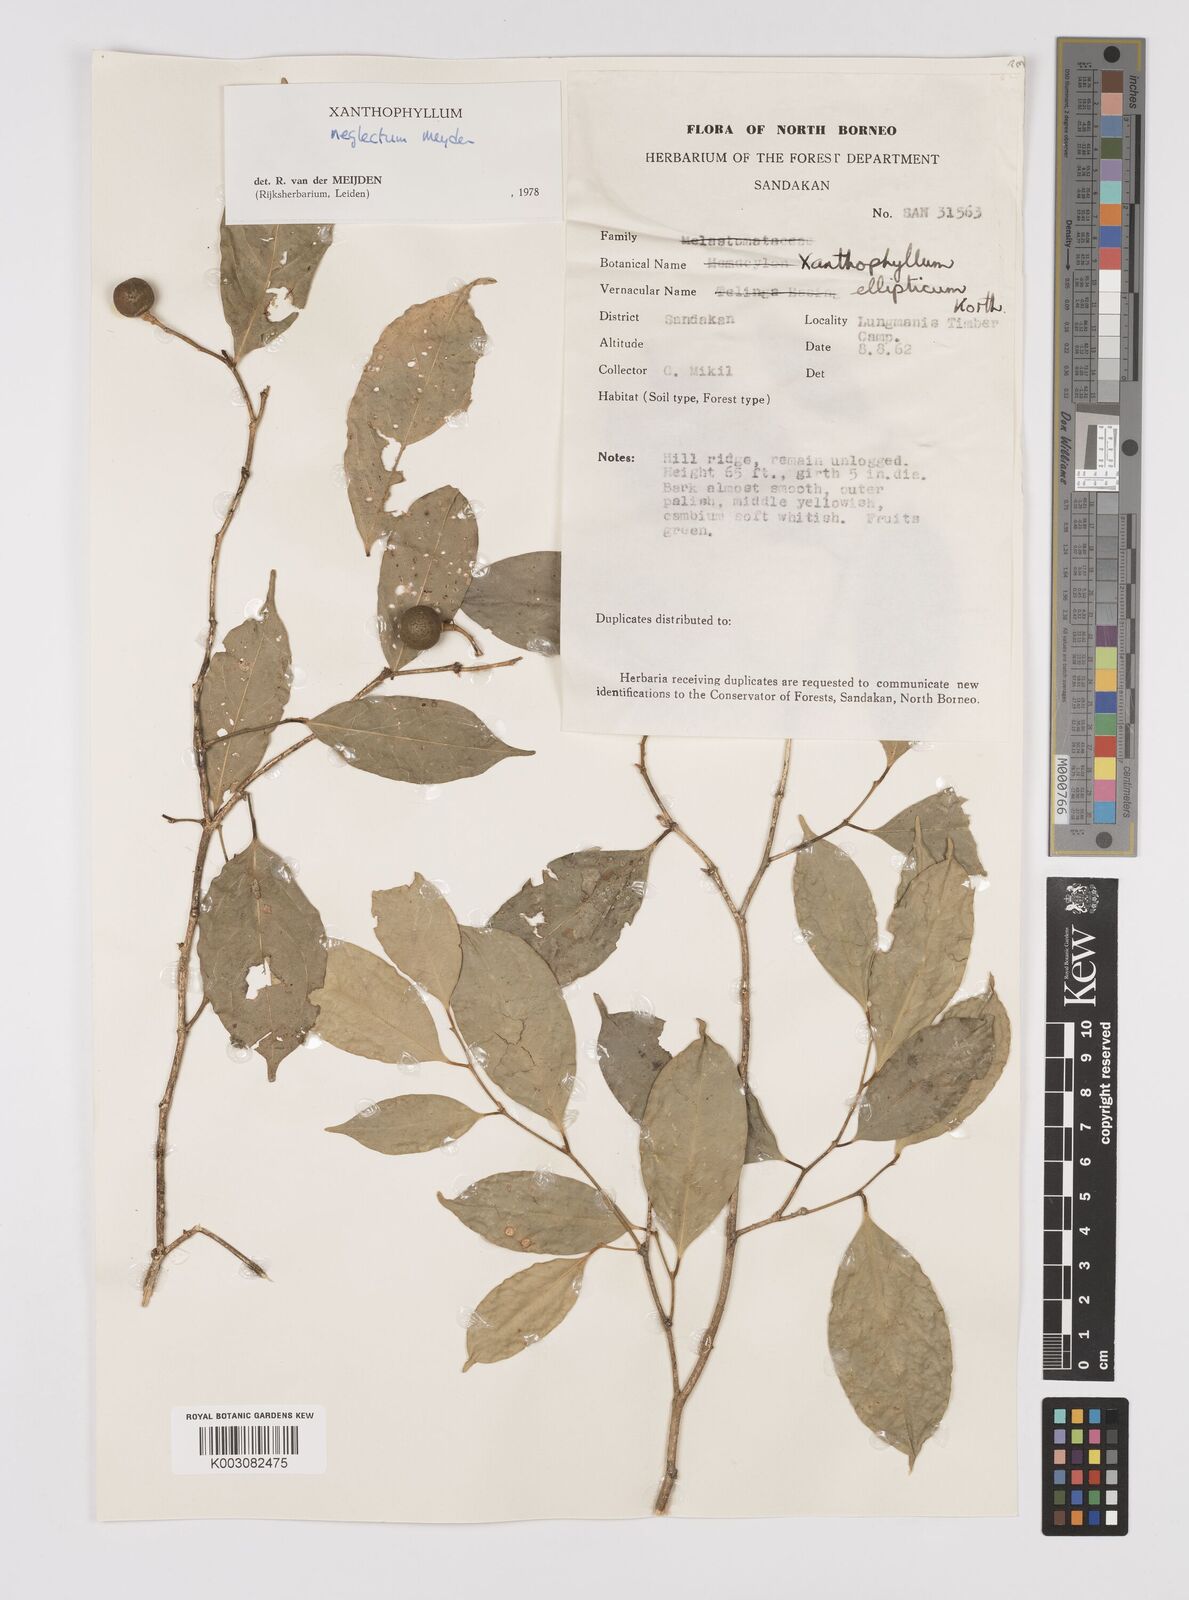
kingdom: Plantae
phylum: Tracheophyta
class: Magnoliopsida
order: Fabales
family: Polygalaceae
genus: Xanthophyllum
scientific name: Xanthophyllum neglectum
